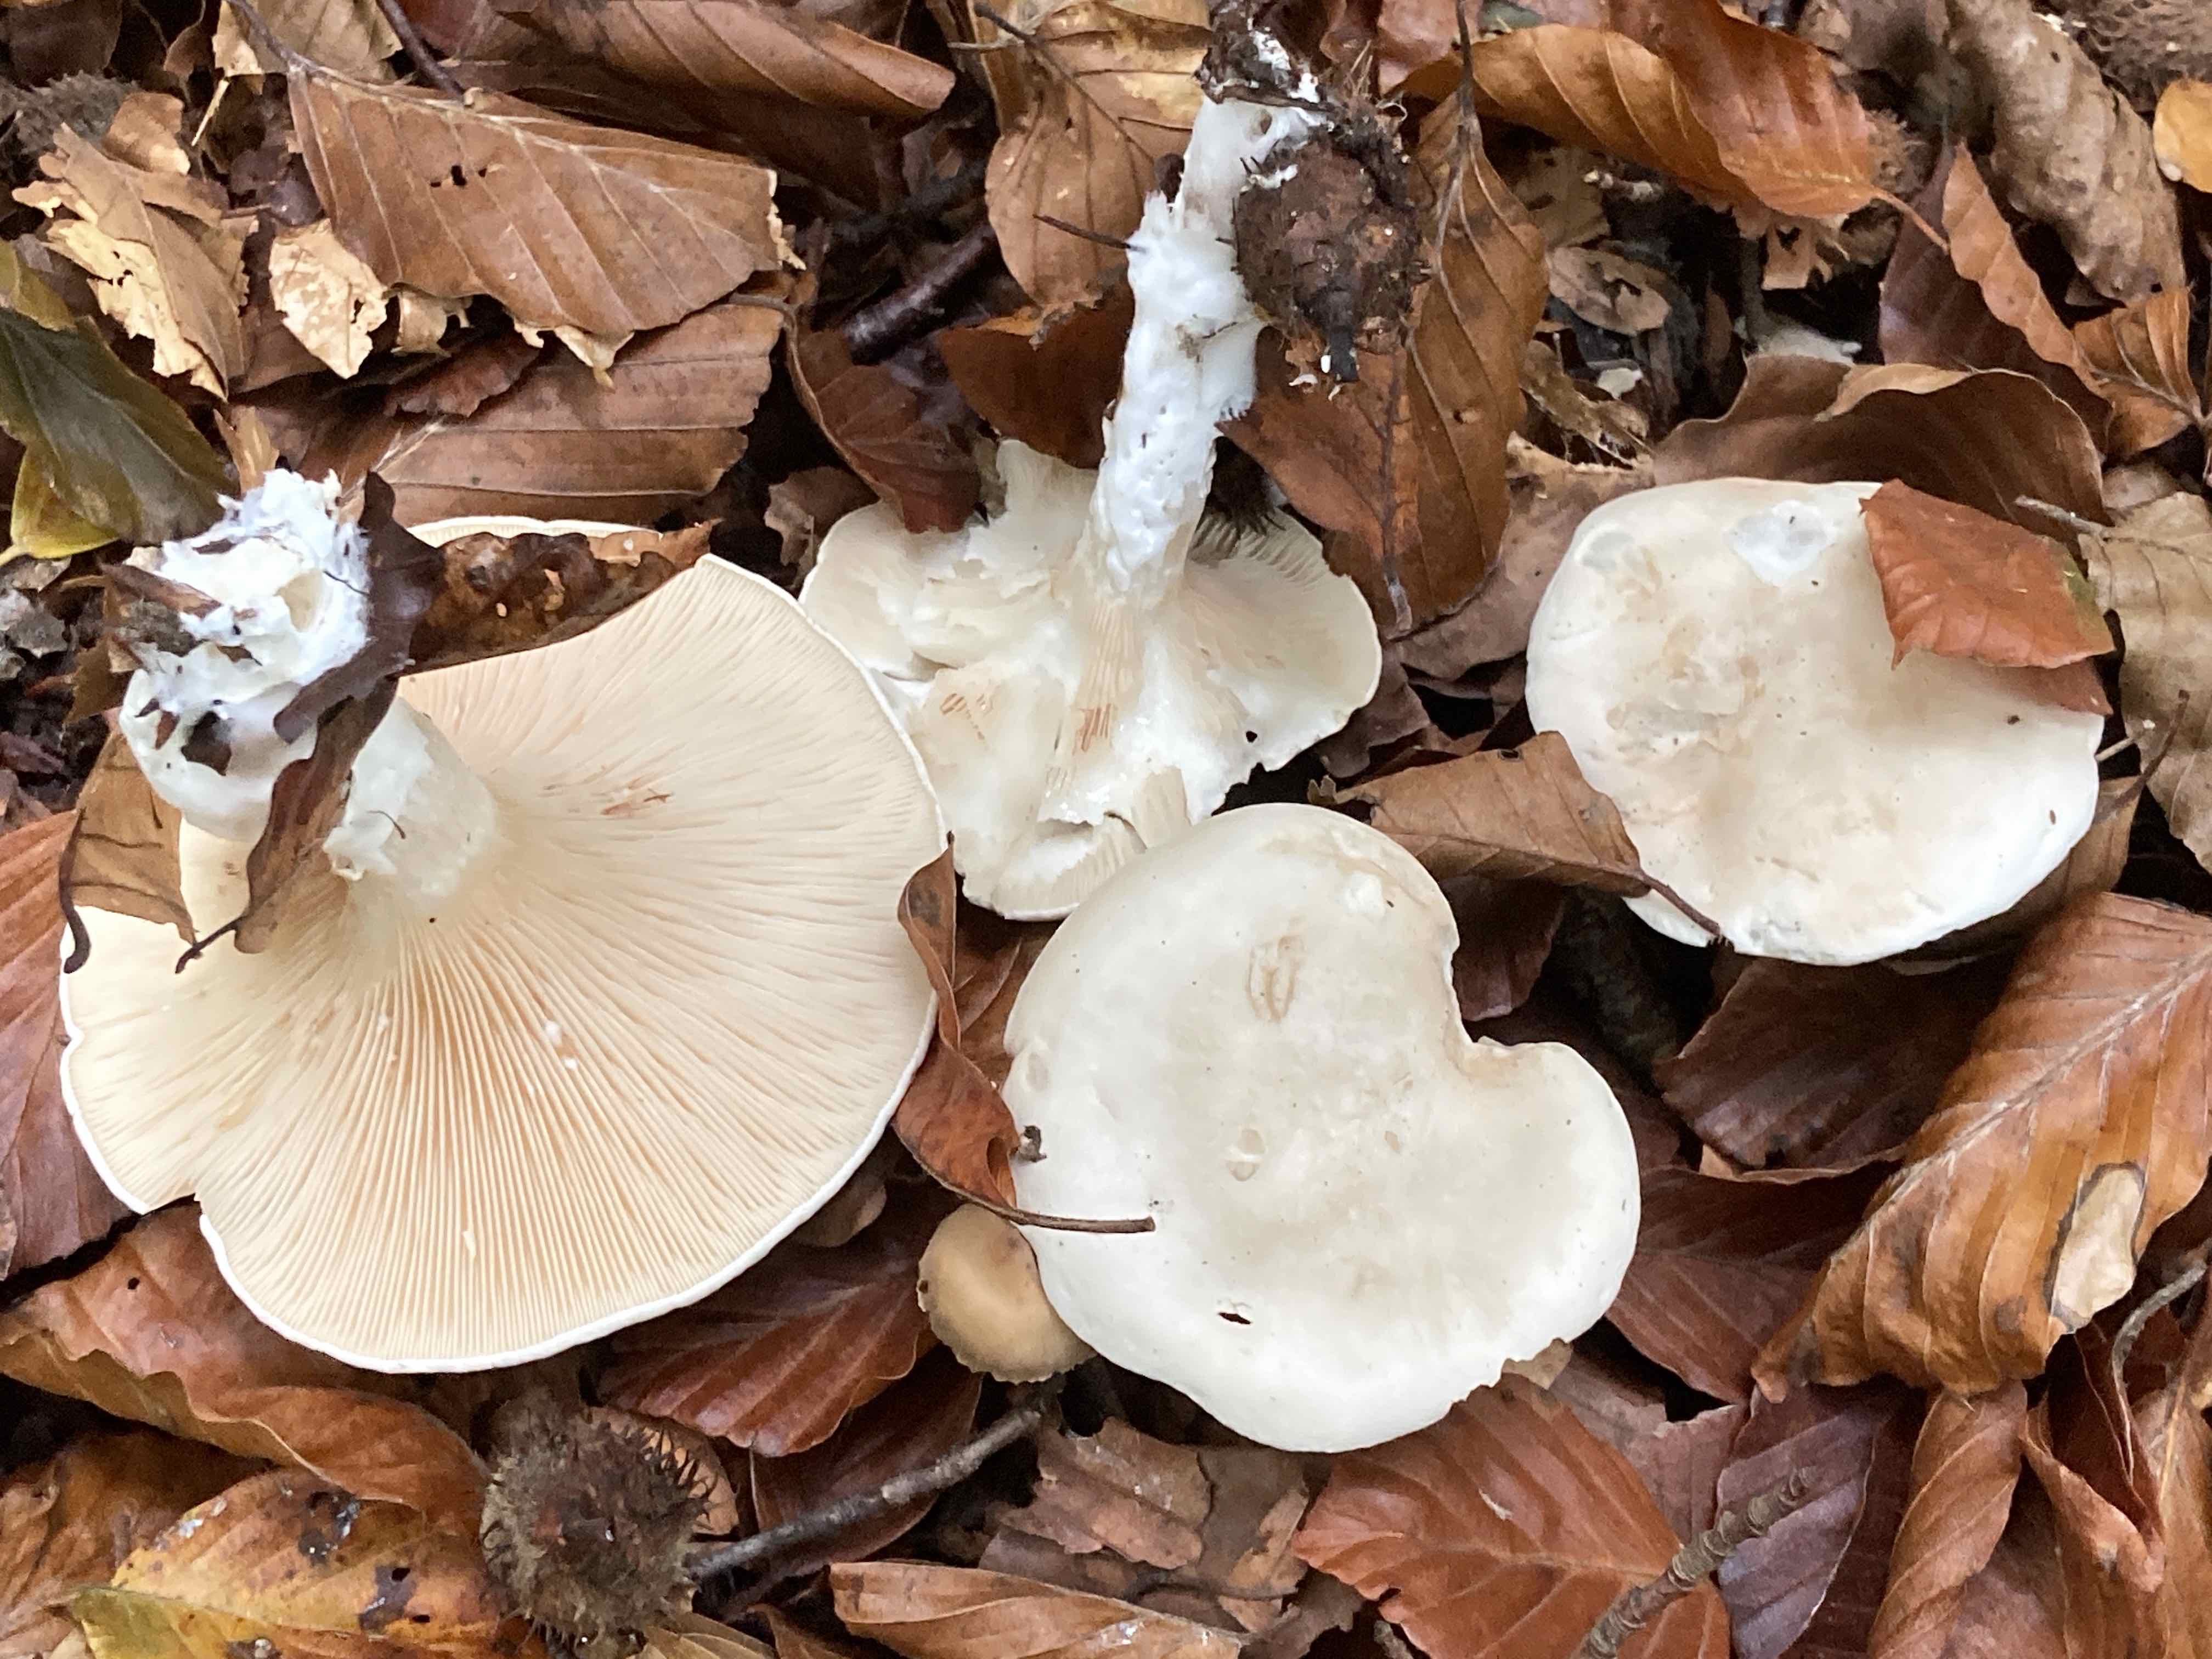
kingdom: Fungi
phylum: Basidiomycota
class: Agaricomycetes
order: Agaricales
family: Entolomataceae
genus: Clitopilus
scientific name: Clitopilus prunulus
